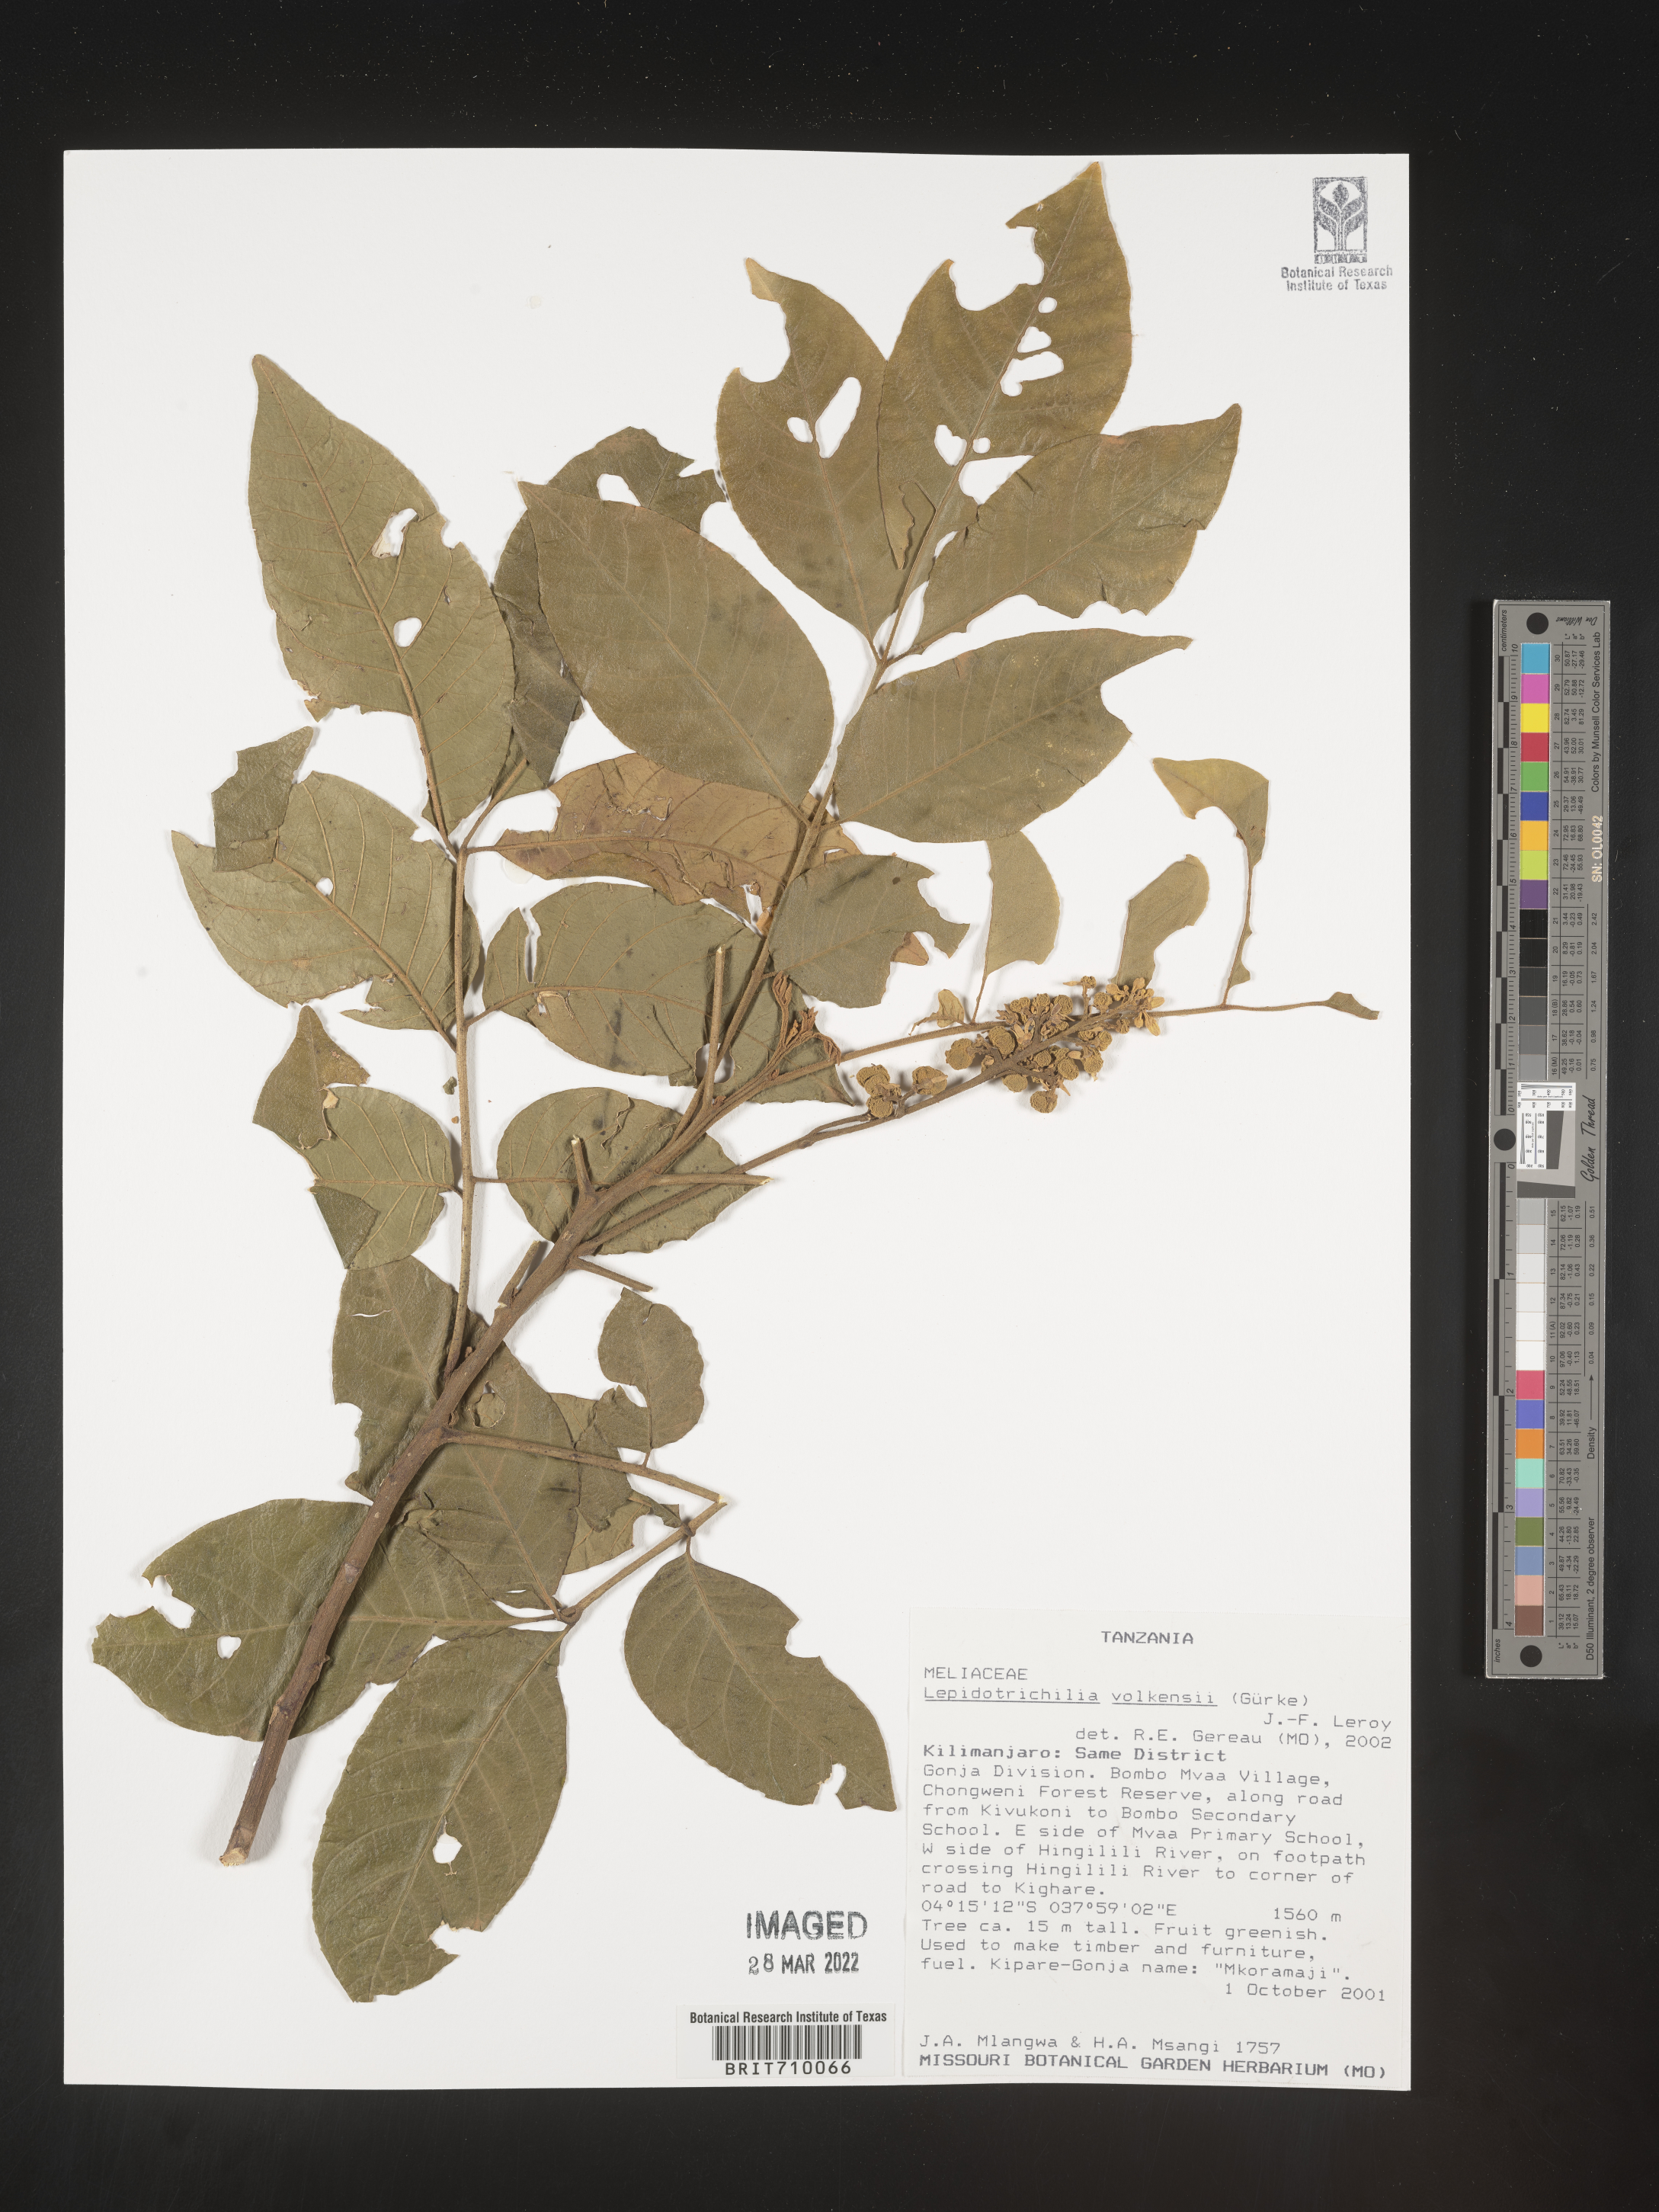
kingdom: Plantae
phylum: Tracheophyta
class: Magnoliopsida
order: Sapindales
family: Meliaceae
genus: Lepidotrichilia
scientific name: Lepidotrichilia
